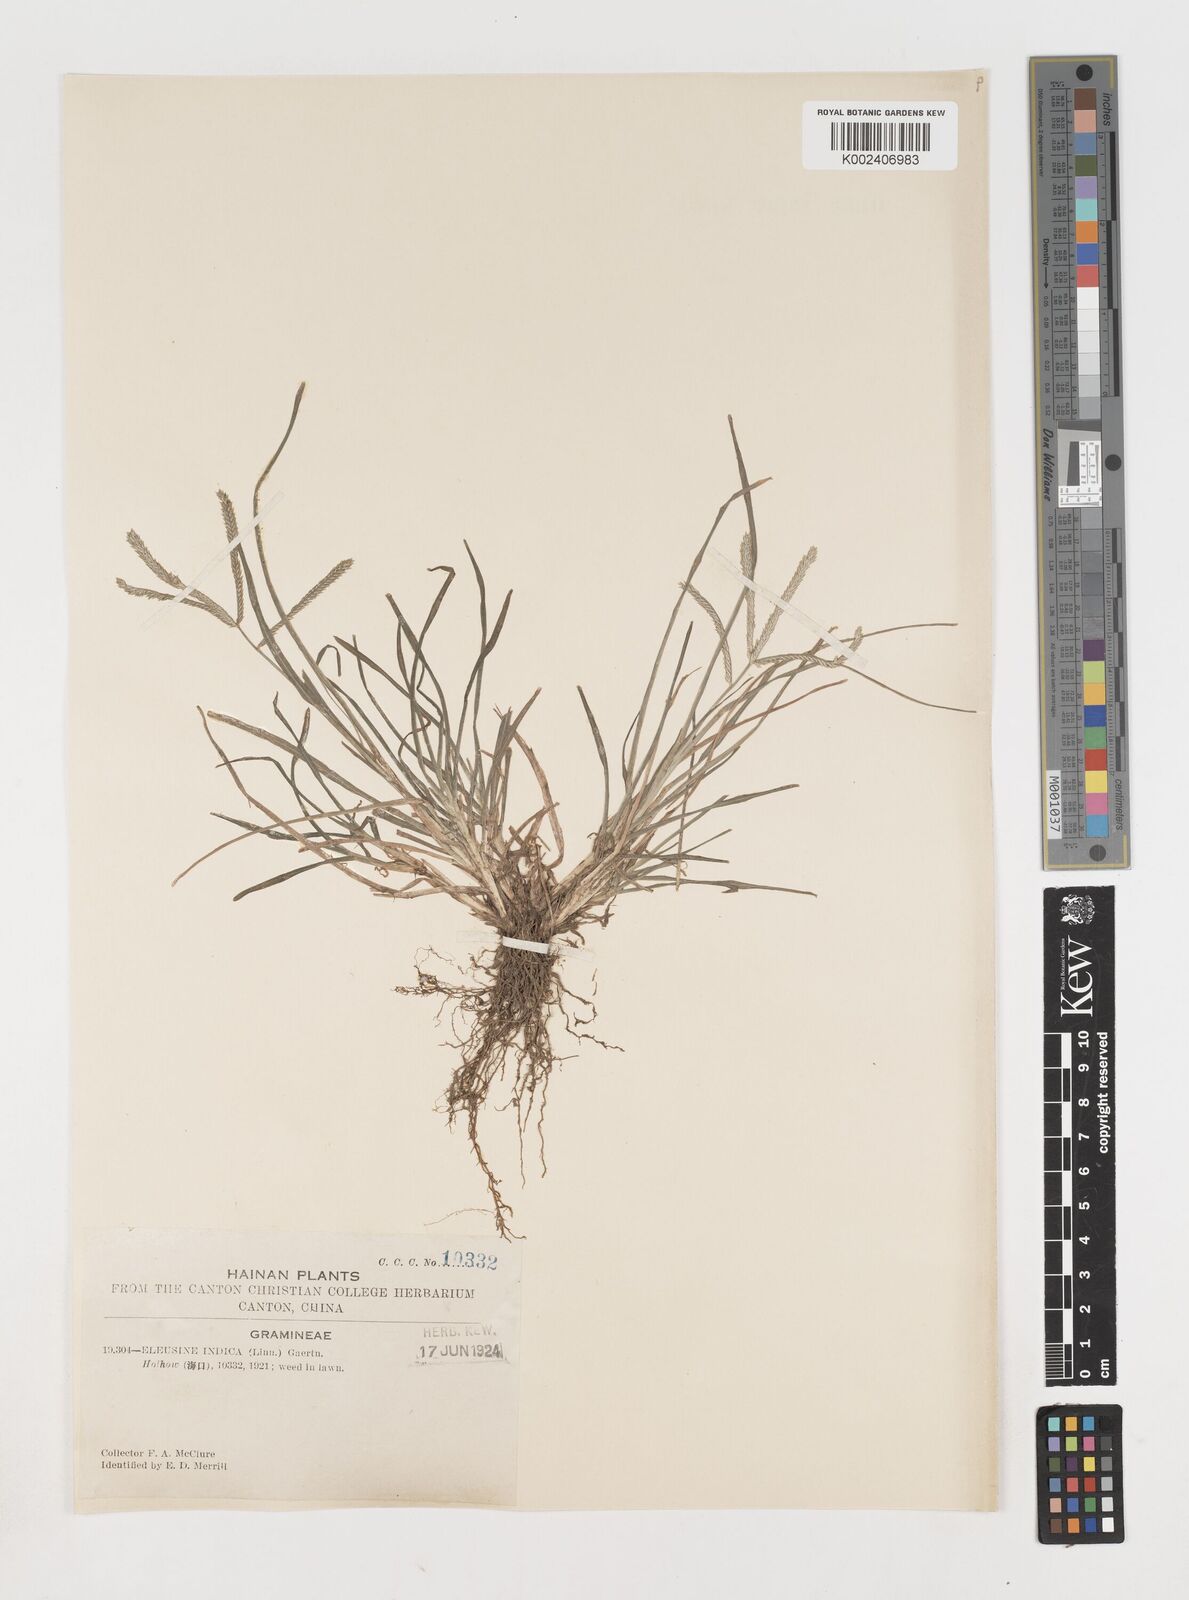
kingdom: Plantae
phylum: Tracheophyta
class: Liliopsida
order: Poales
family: Poaceae
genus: Eleusine
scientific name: Eleusine indica
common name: Yard-grass
